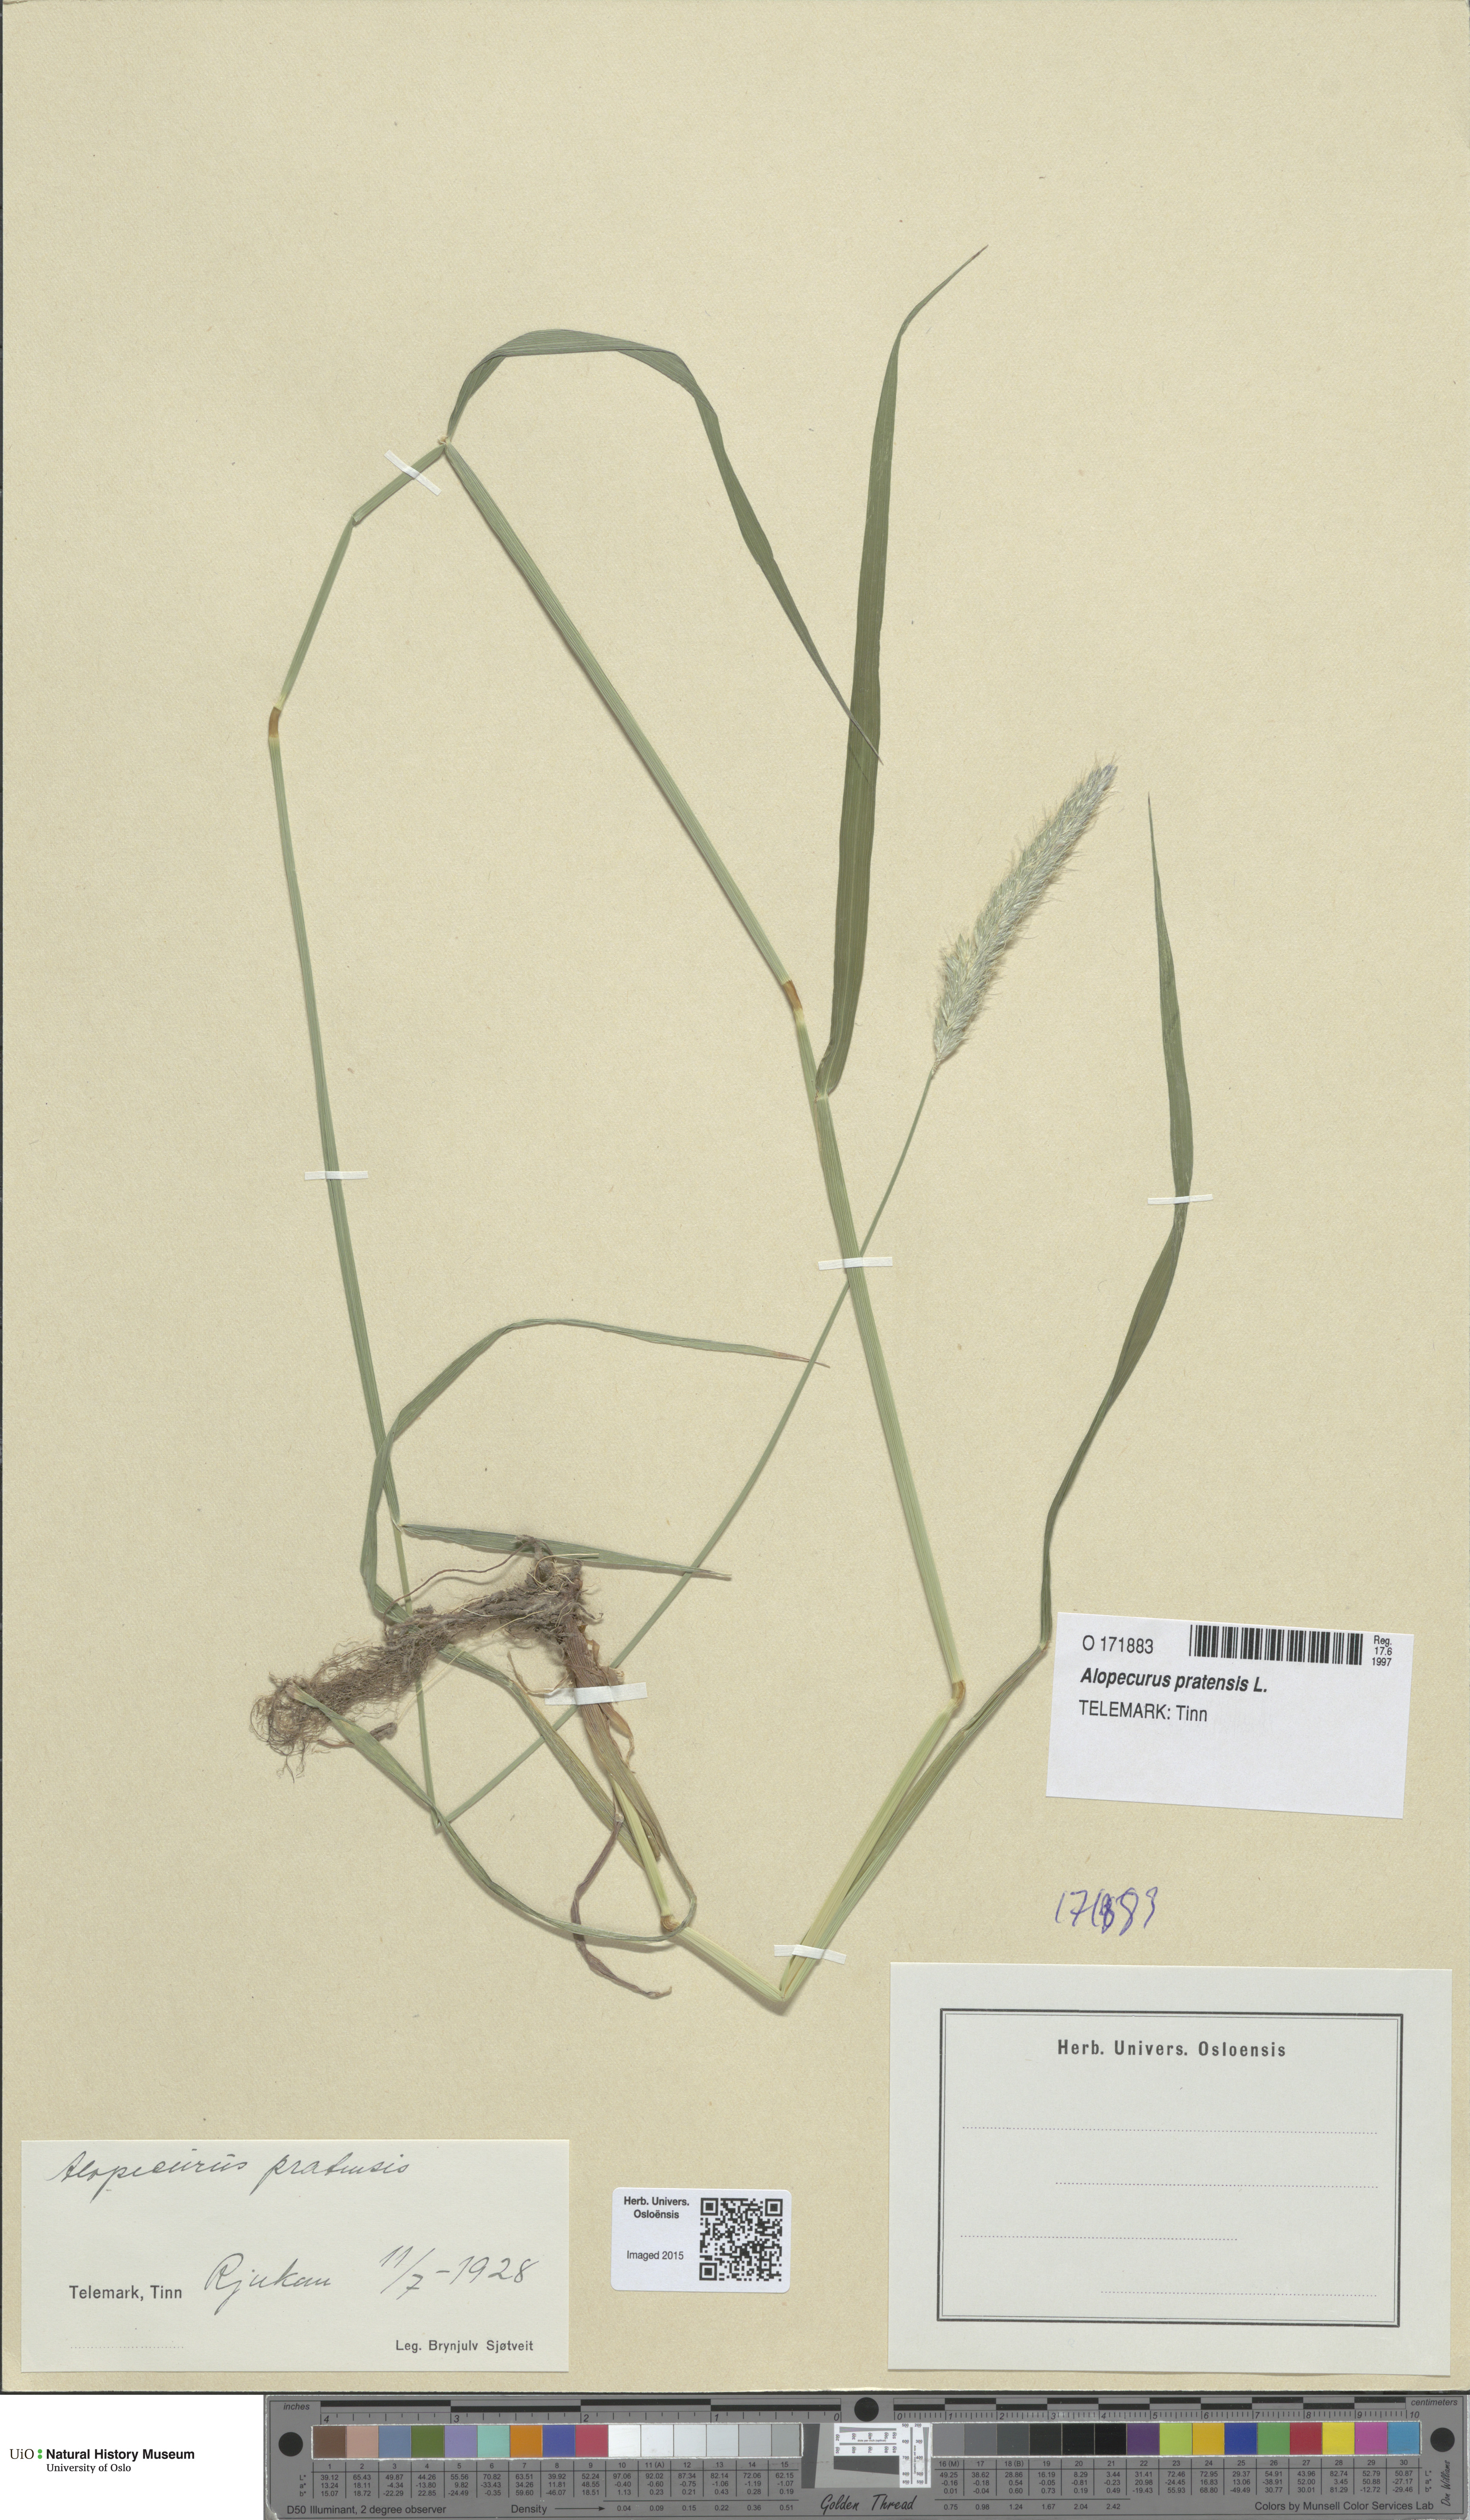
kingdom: Plantae
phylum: Tracheophyta
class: Liliopsida
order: Poales
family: Poaceae
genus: Alopecurus
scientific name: Alopecurus pratensis
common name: Meadow foxtail
